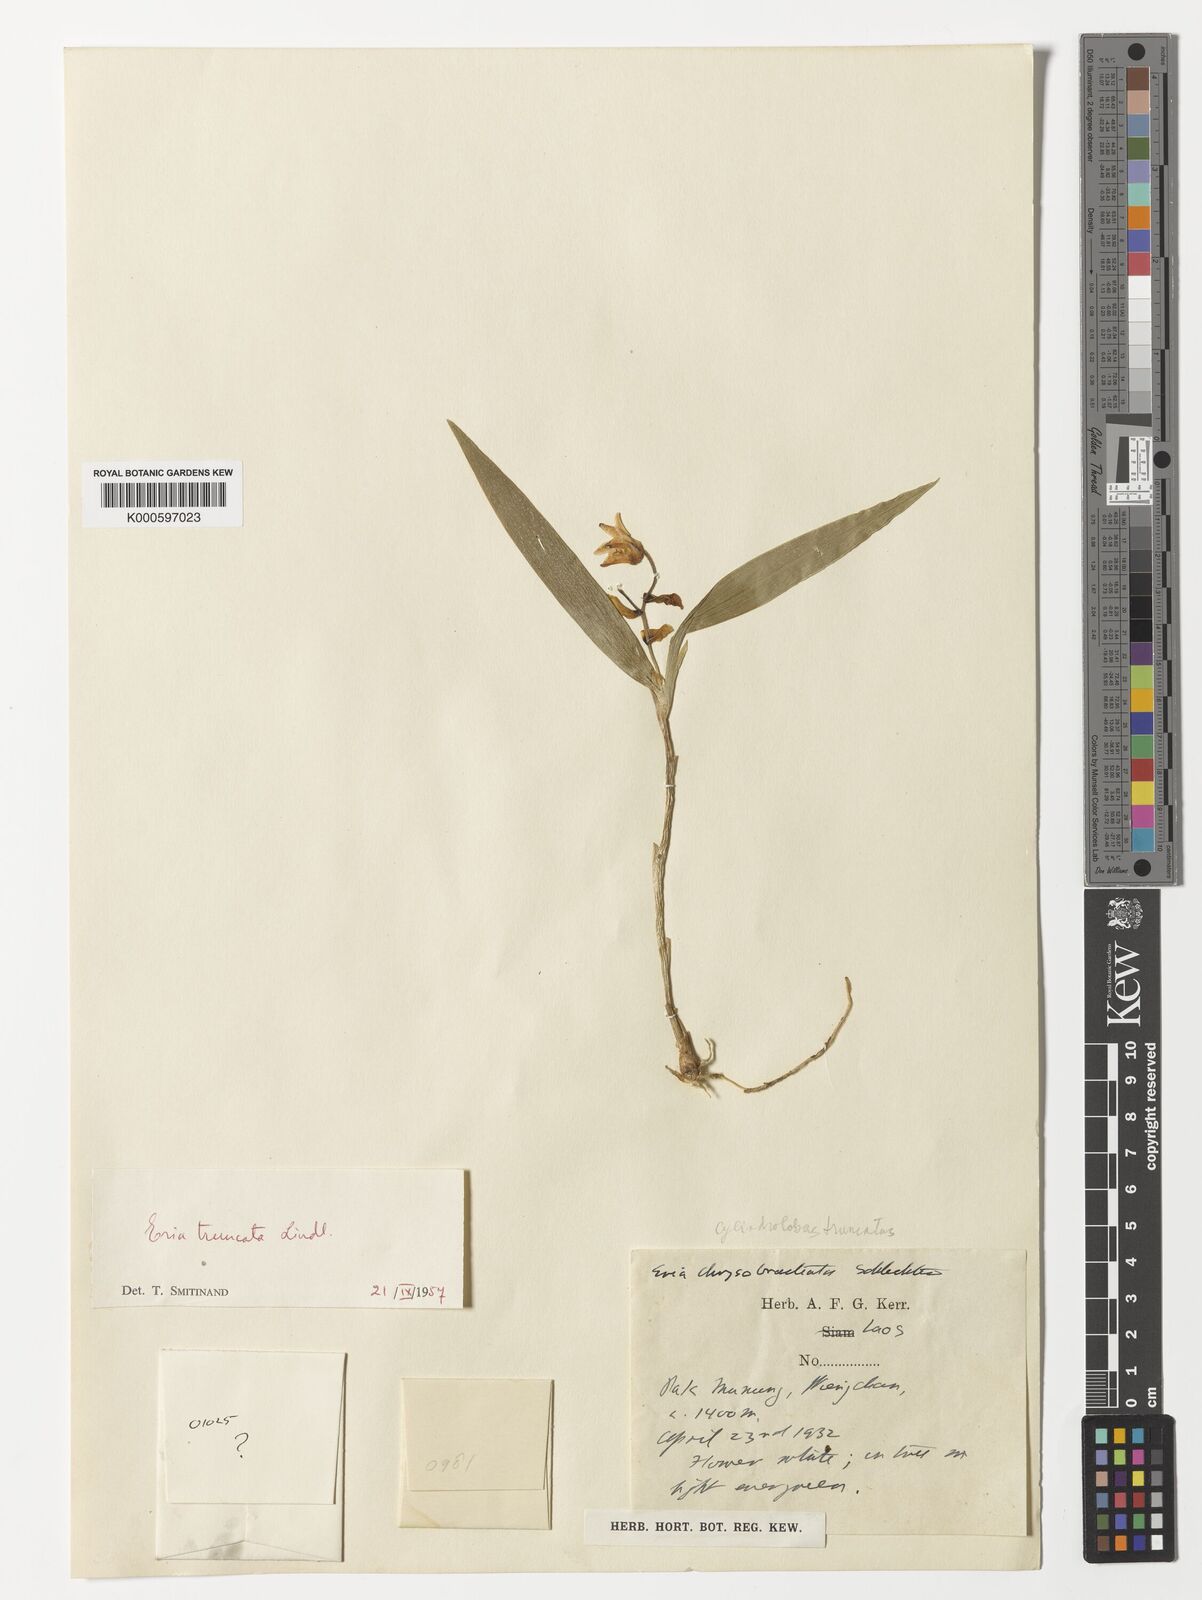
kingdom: Plantae
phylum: Tracheophyta
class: Liliopsida
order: Asparagales
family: Orchidaceae
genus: Cylindrolobus
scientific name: Cylindrolobus truncatus
